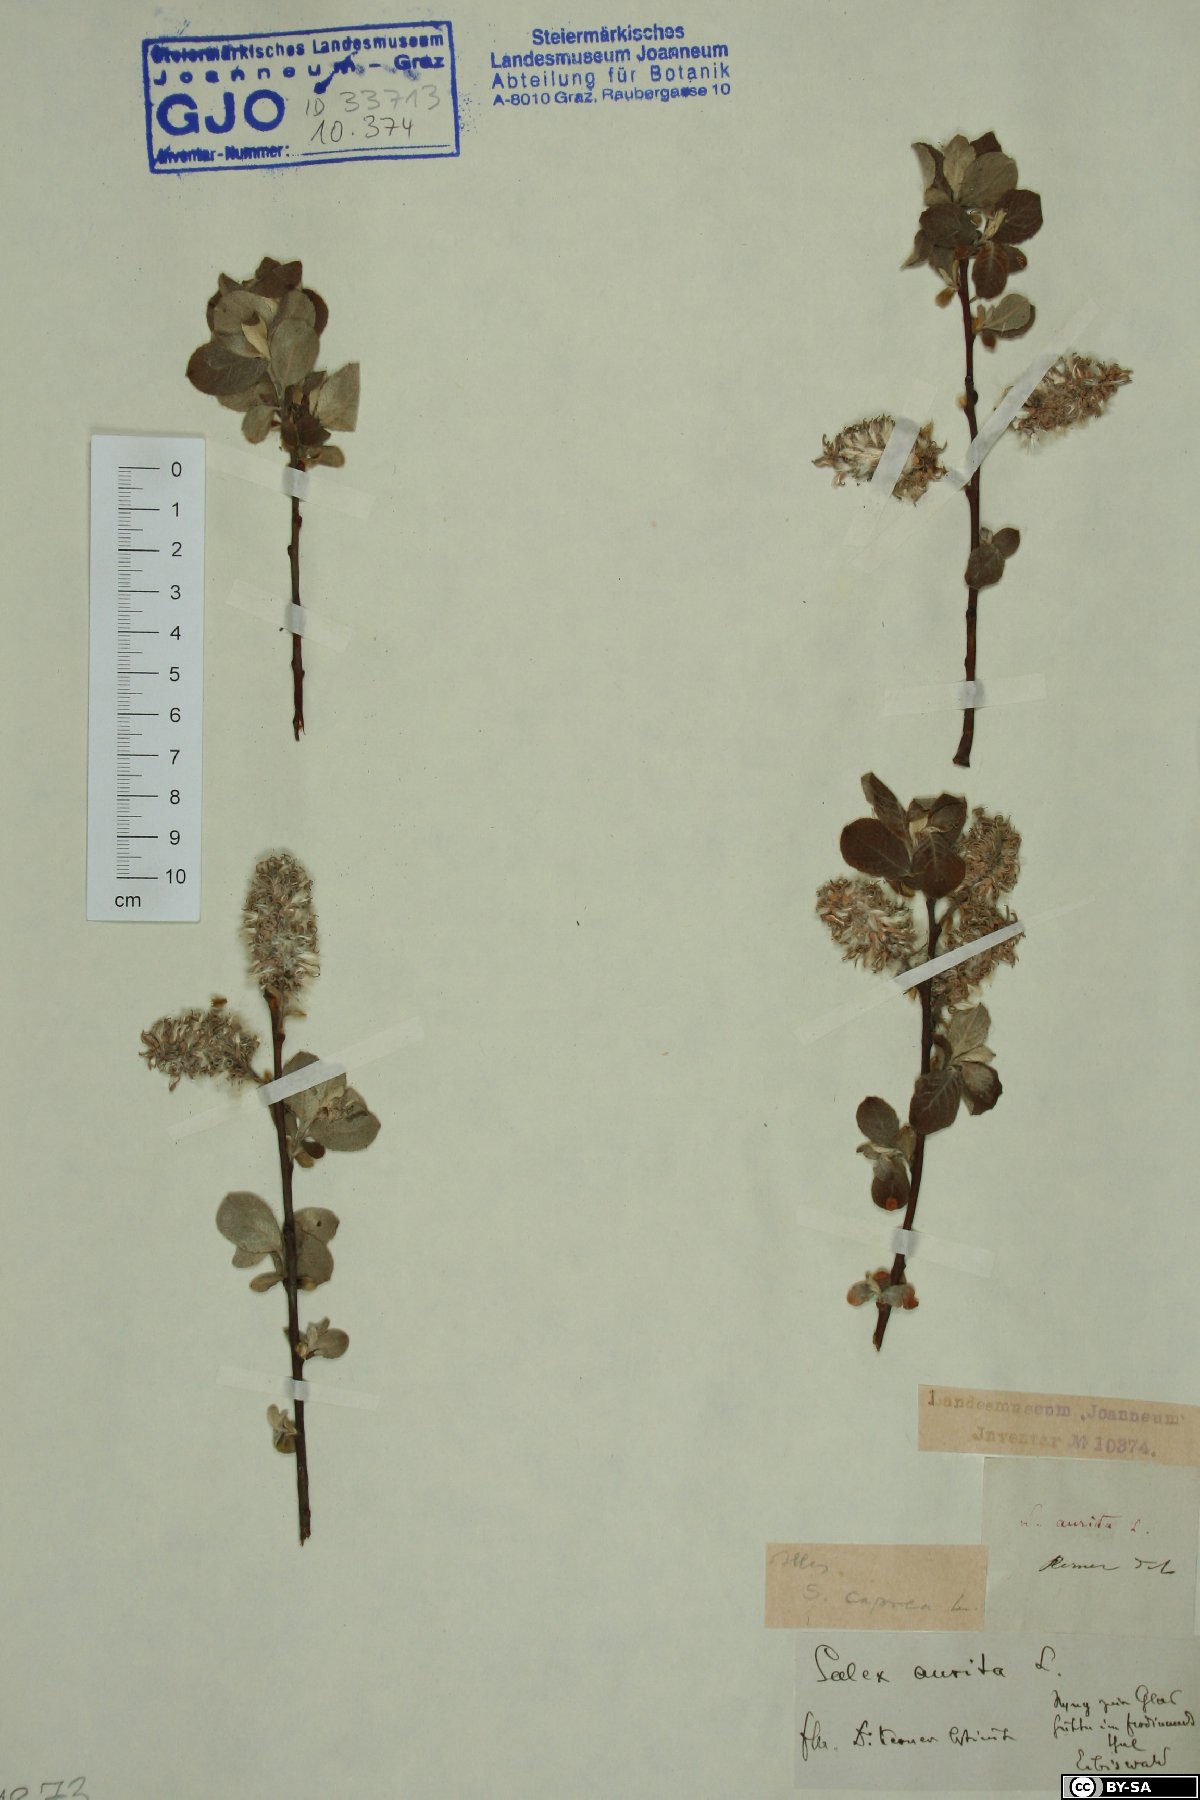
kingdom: Plantae
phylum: Tracheophyta
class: Magnoliopsida
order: Malpighiales
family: Salicaceae
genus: Salix
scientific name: Salix caprea
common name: Goat willow
